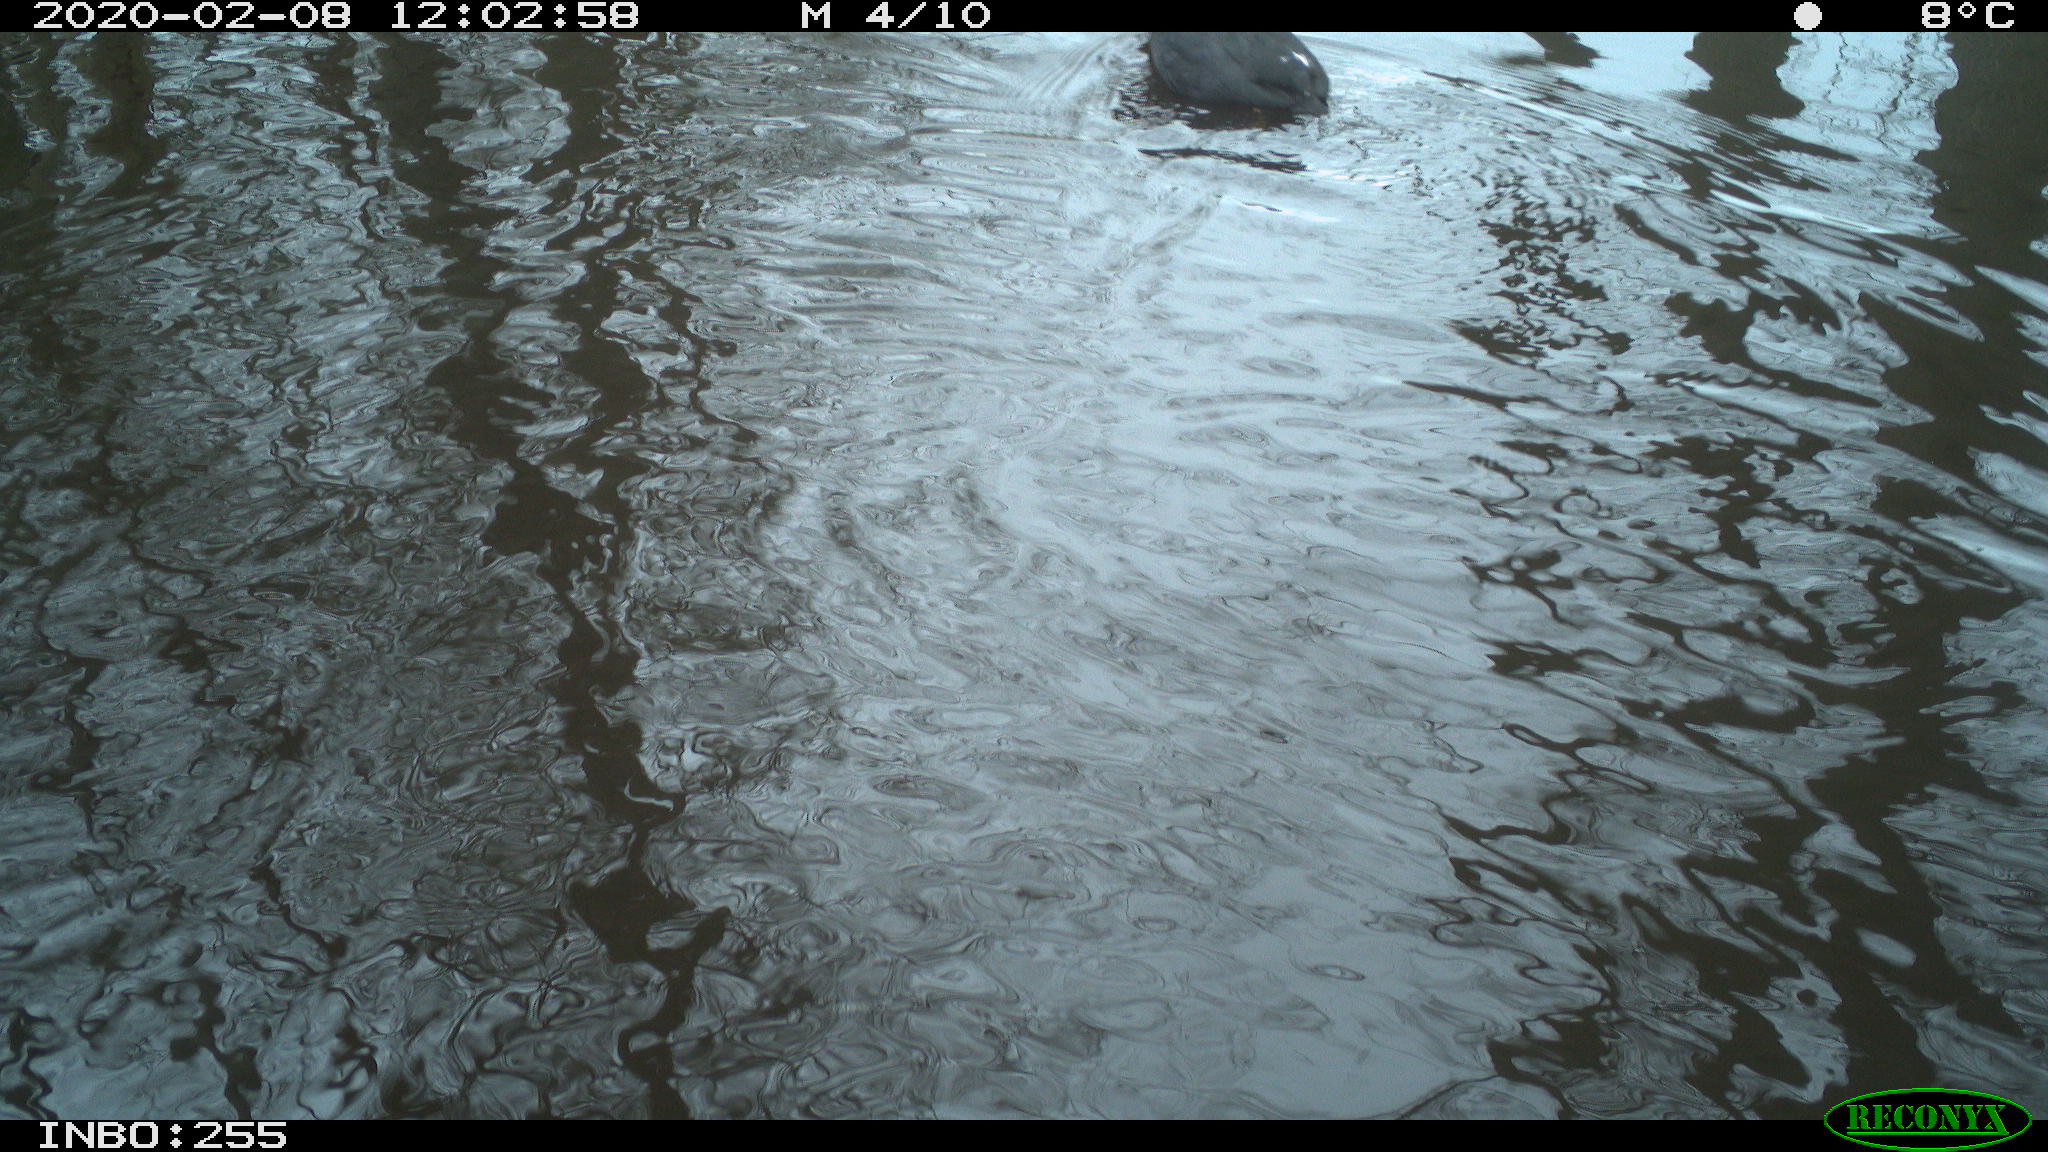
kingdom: Animalia
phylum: Chordata
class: Aves
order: Gruiformes
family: Rallidae
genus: Fulica
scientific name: Fulica atra
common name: Eurasian coot
